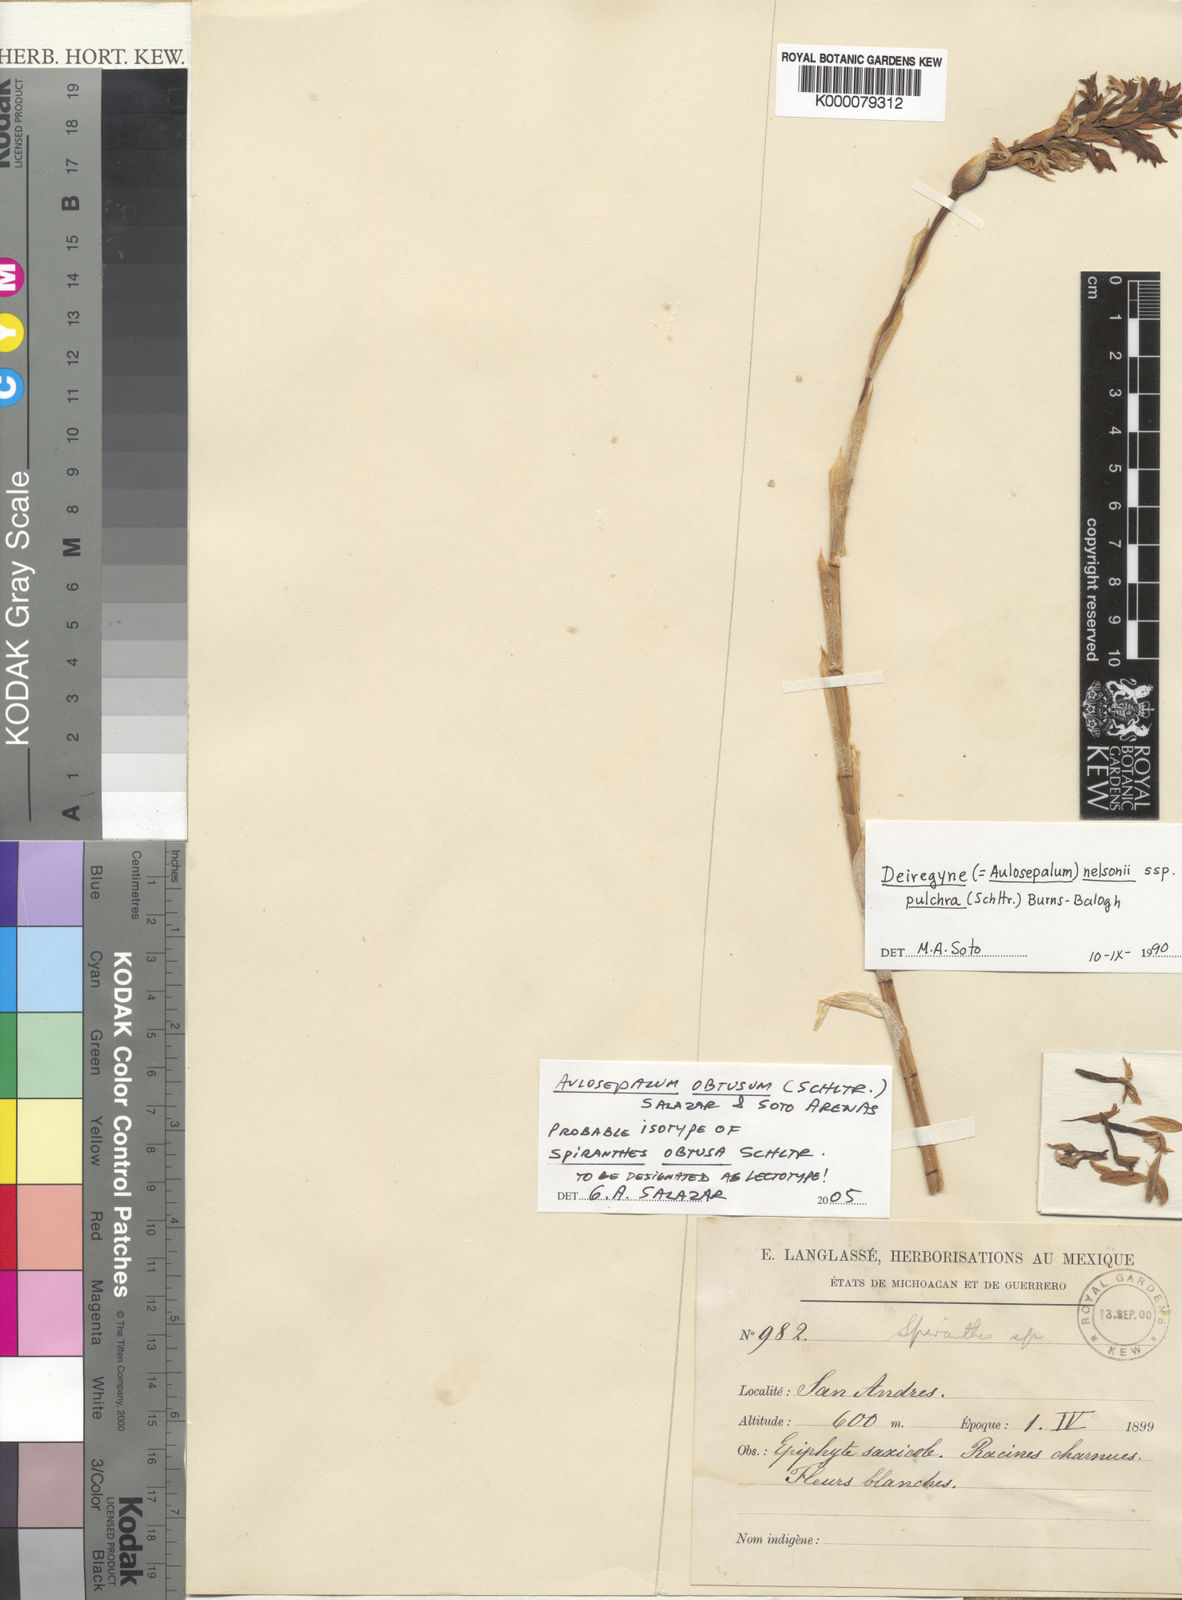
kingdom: Plantae
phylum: Tracheophyta
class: Liliopsida
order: Asparagales
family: Orchidaceae
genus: Aulosepalum
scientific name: Aulosepalum
